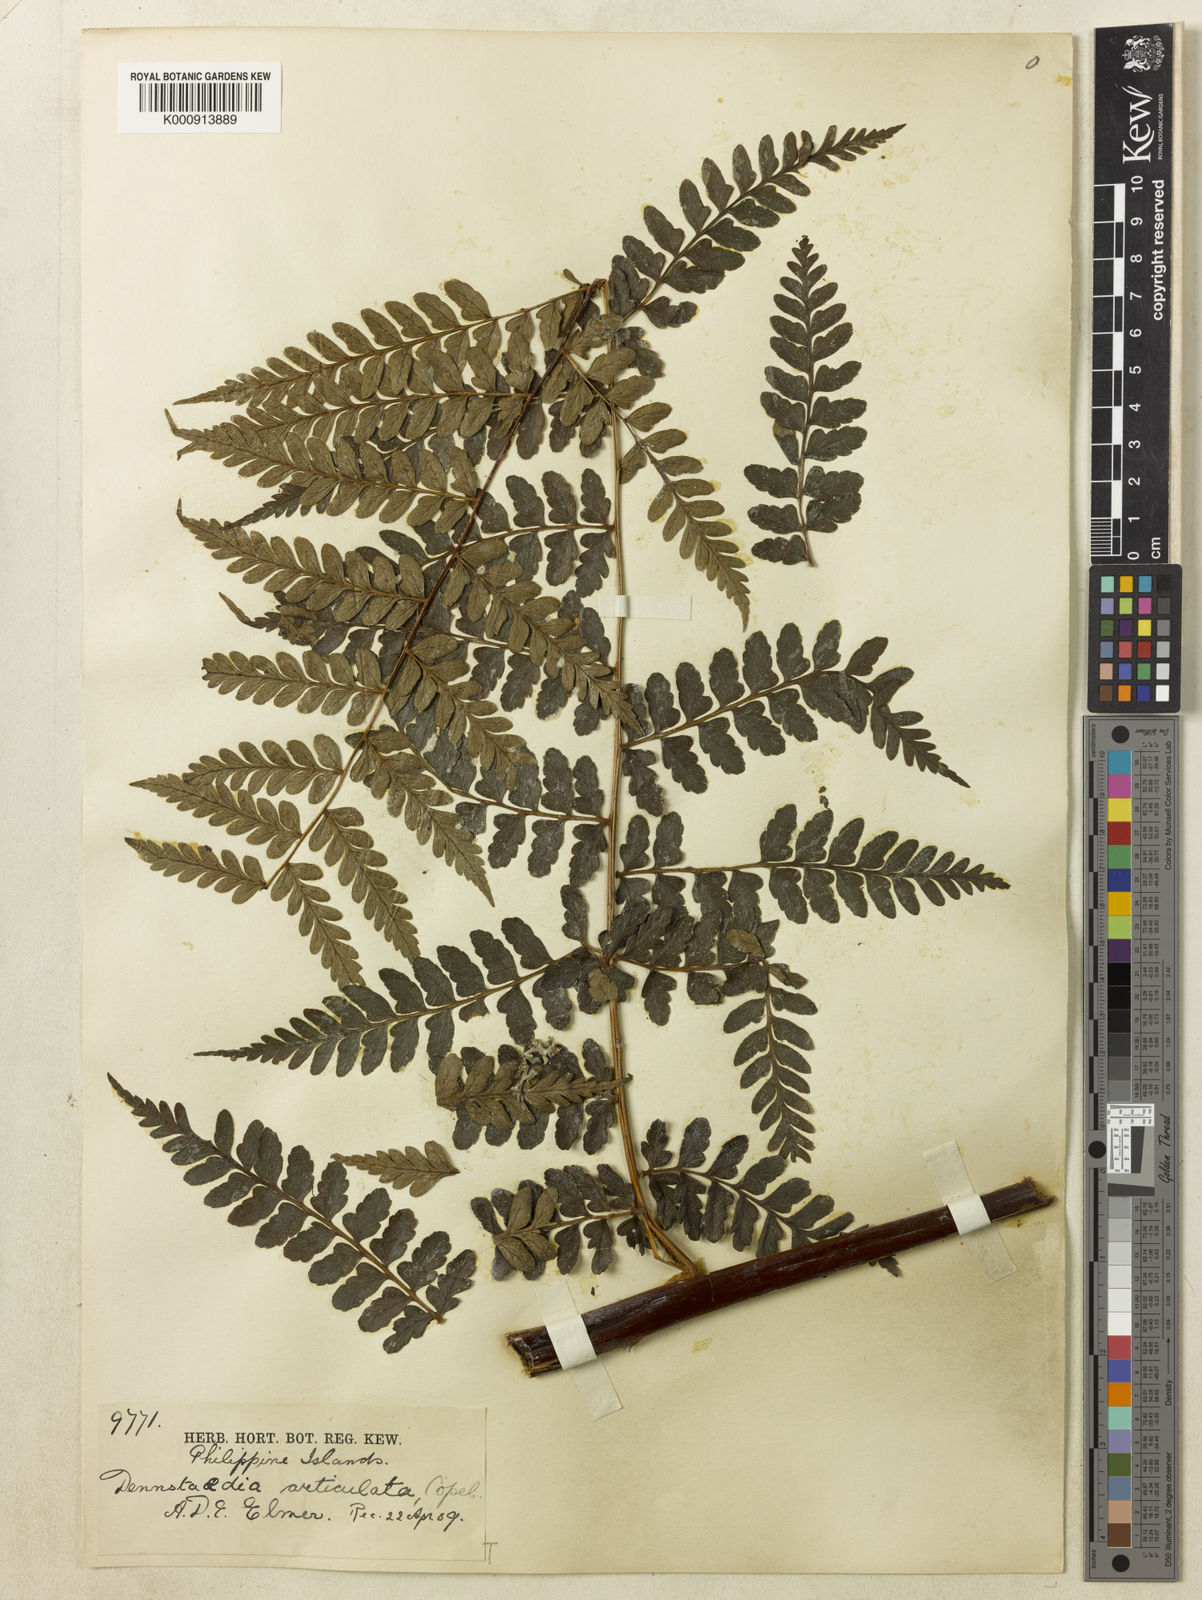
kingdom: Plantae
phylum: Tracheophyta
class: Polypodiopsida
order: Polypodiales
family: Dennstaedtiaceae
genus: Dennstaedtia
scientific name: Dennstaedtia articulata
